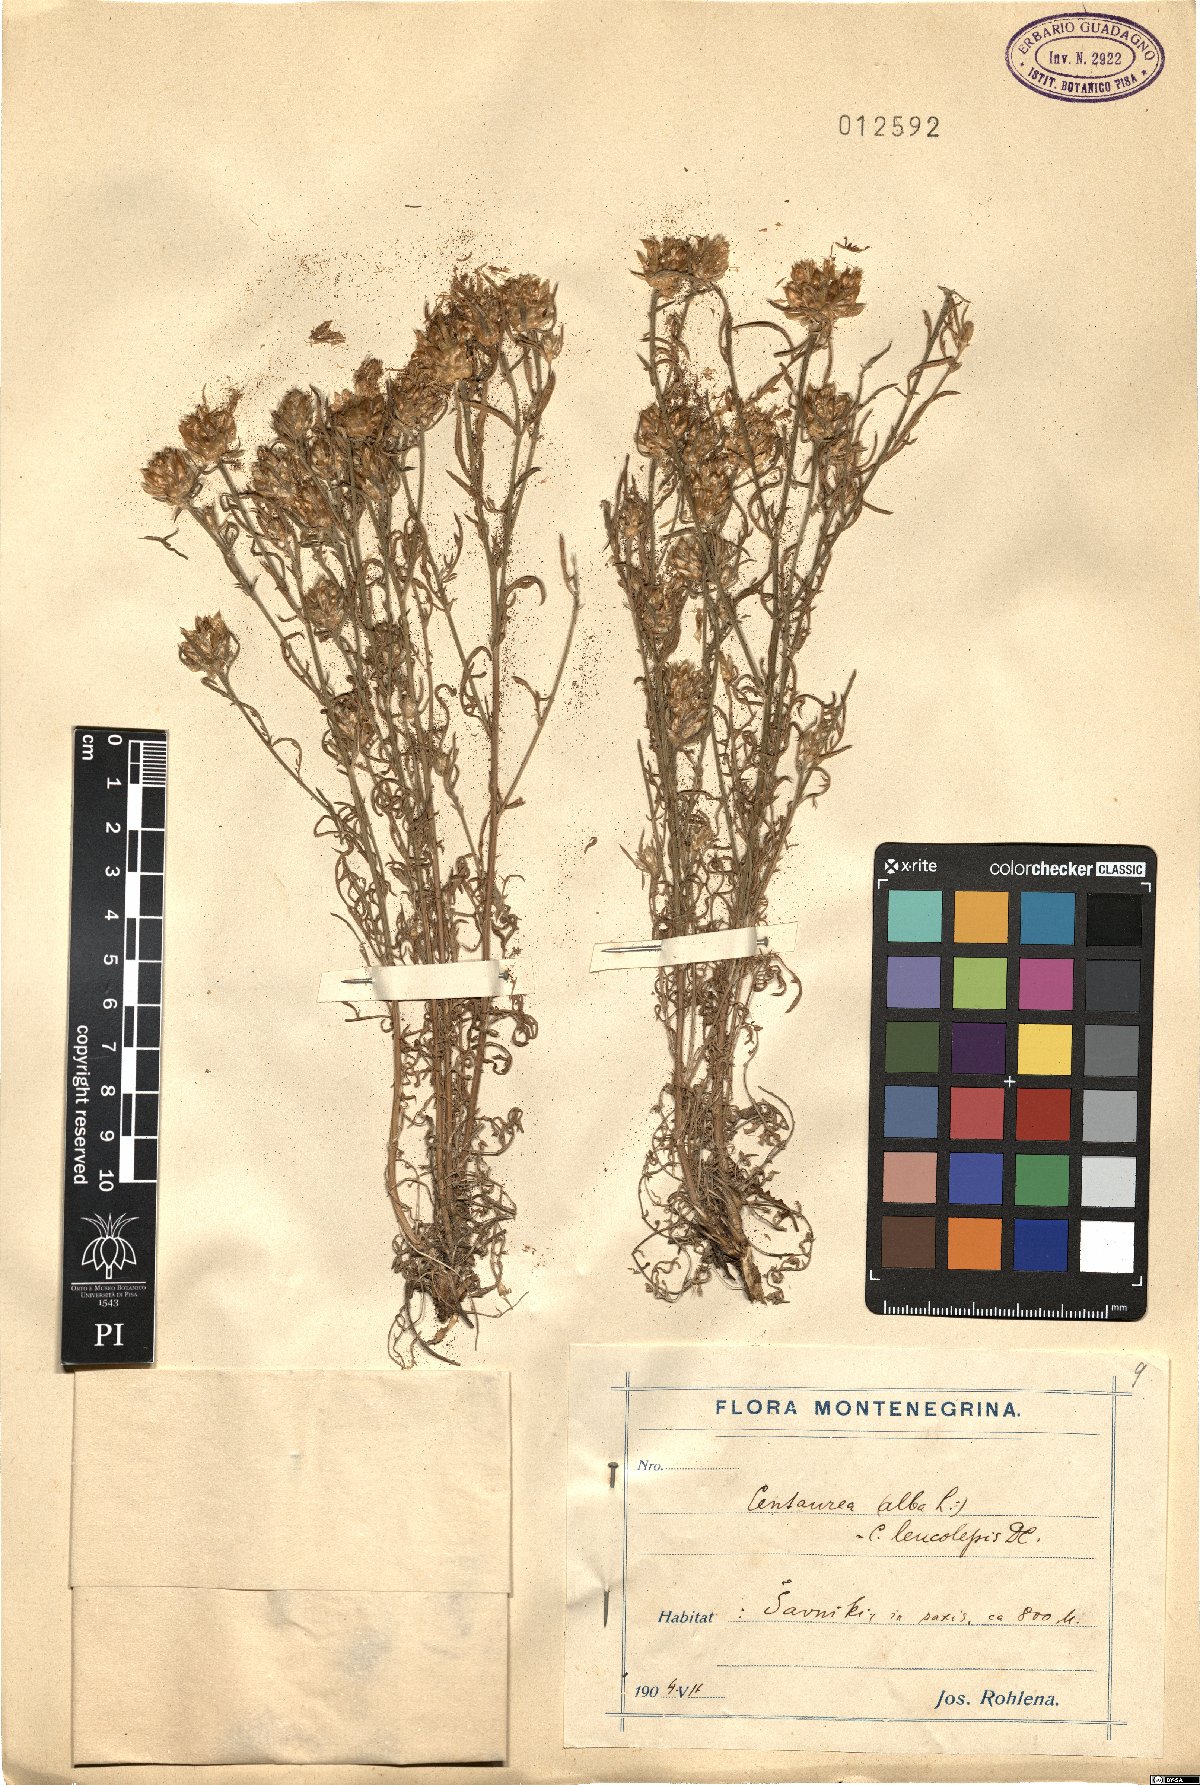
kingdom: Plantae
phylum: Tracheophyta
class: Magnoliopsida
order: Asterales
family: Asteraceae
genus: Centaurea
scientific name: Centaurea deusta
